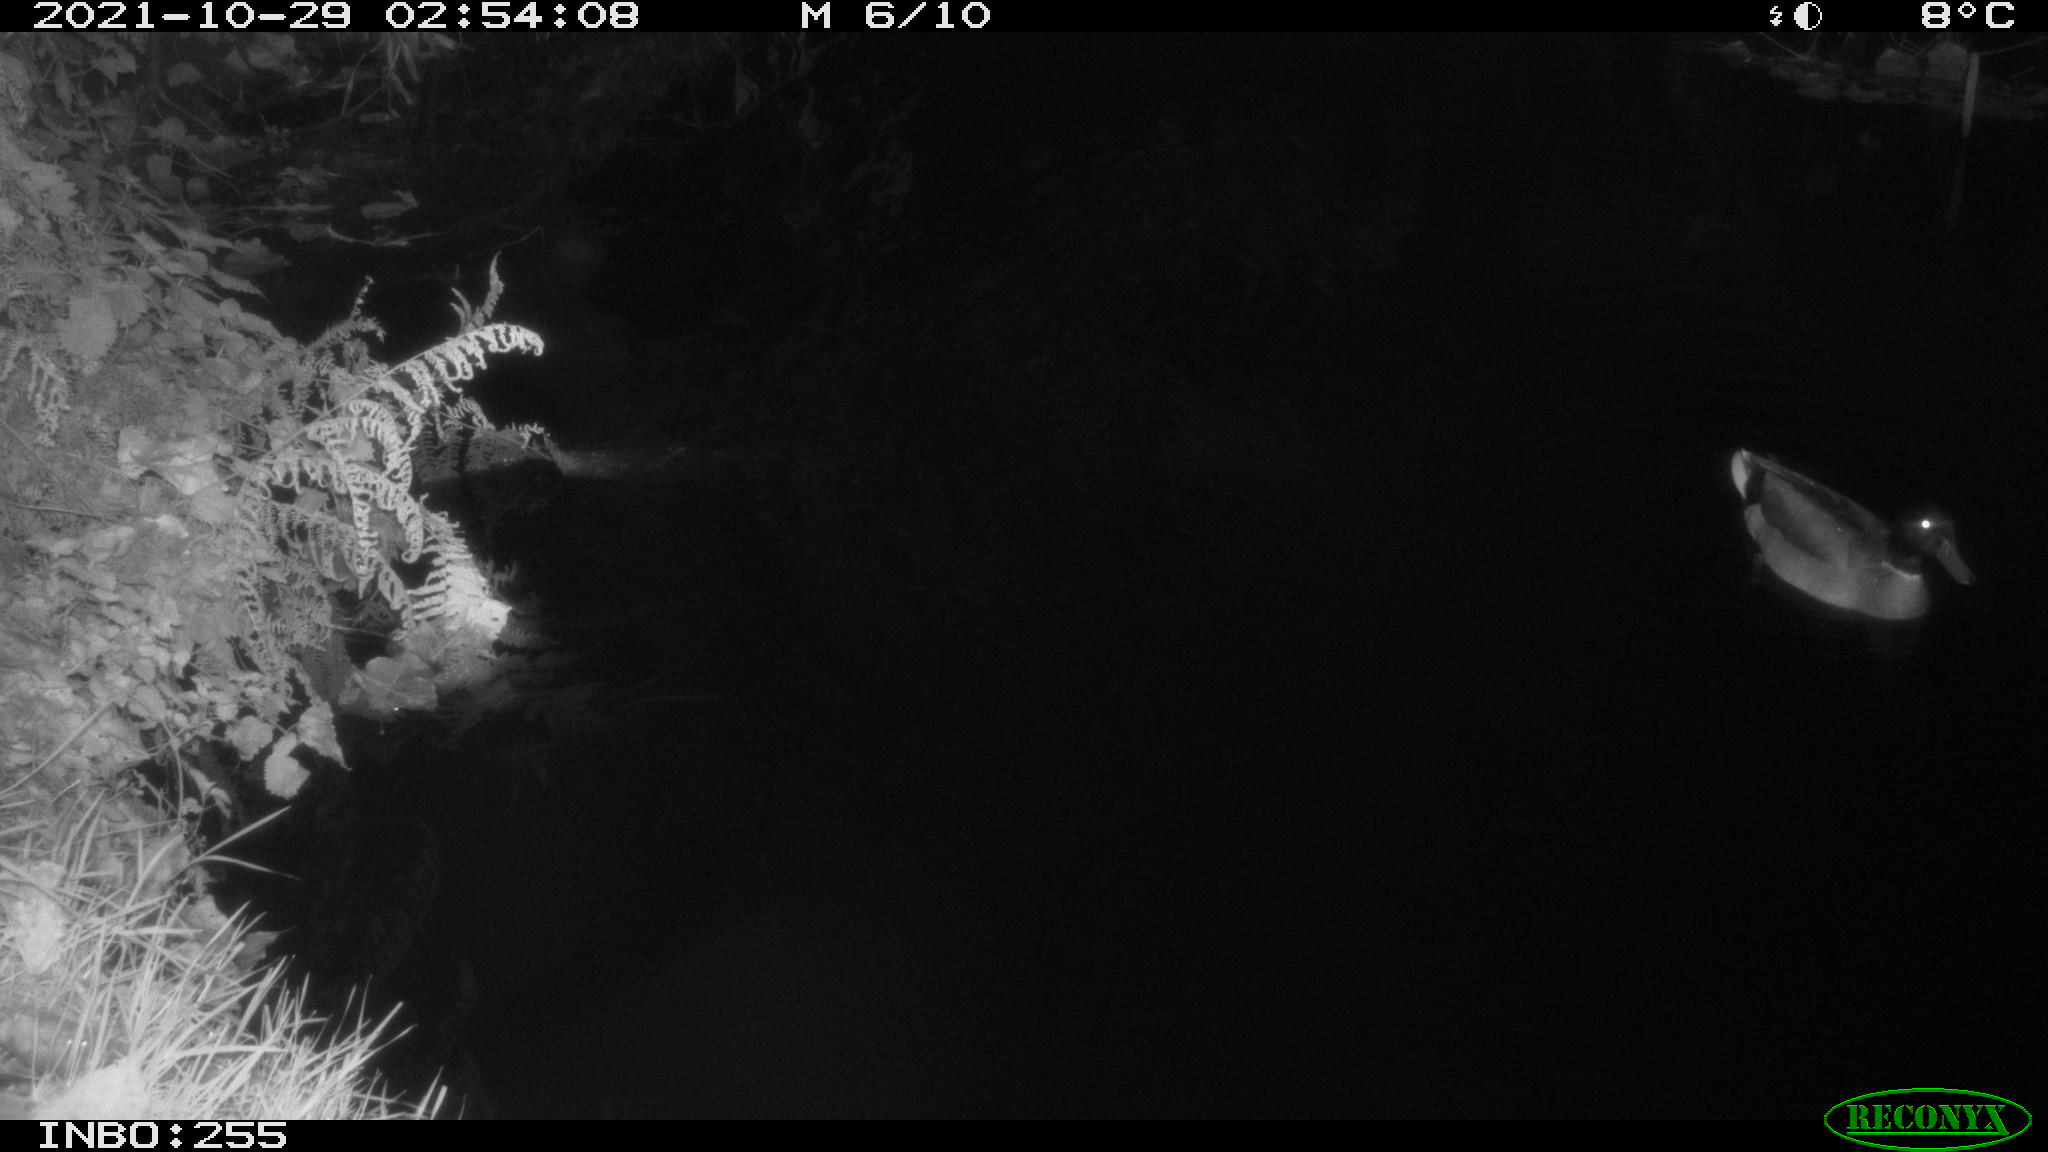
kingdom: Animalia
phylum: Chordata
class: Aves
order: Anseriformes
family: Anatidae
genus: Anas
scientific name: Anas platyrhynchos
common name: Mallard
